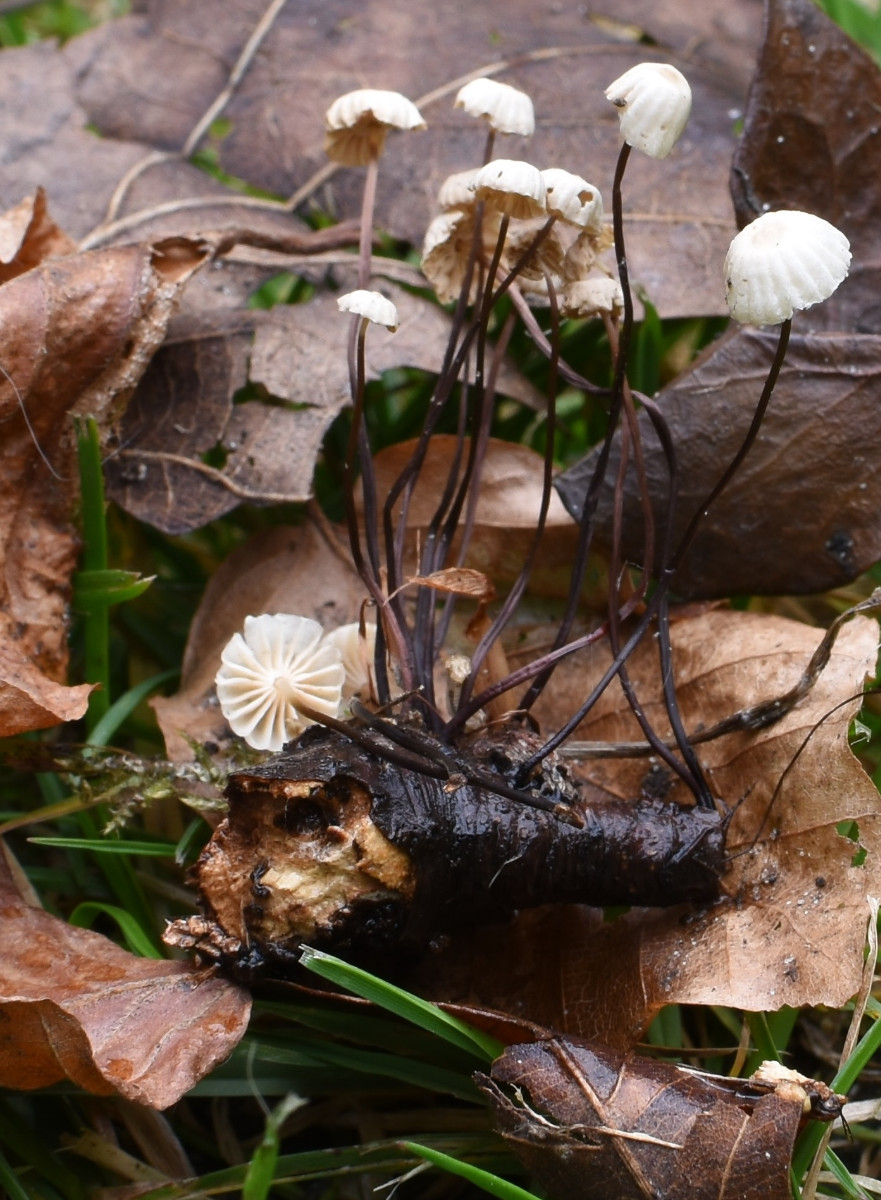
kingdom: Fungi
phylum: Basidiomycota
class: Agaricomycetes
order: Agaricales
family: Marasmiaceae
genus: Marasmius
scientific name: Marasmius rotula
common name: hjul-bruskhat
